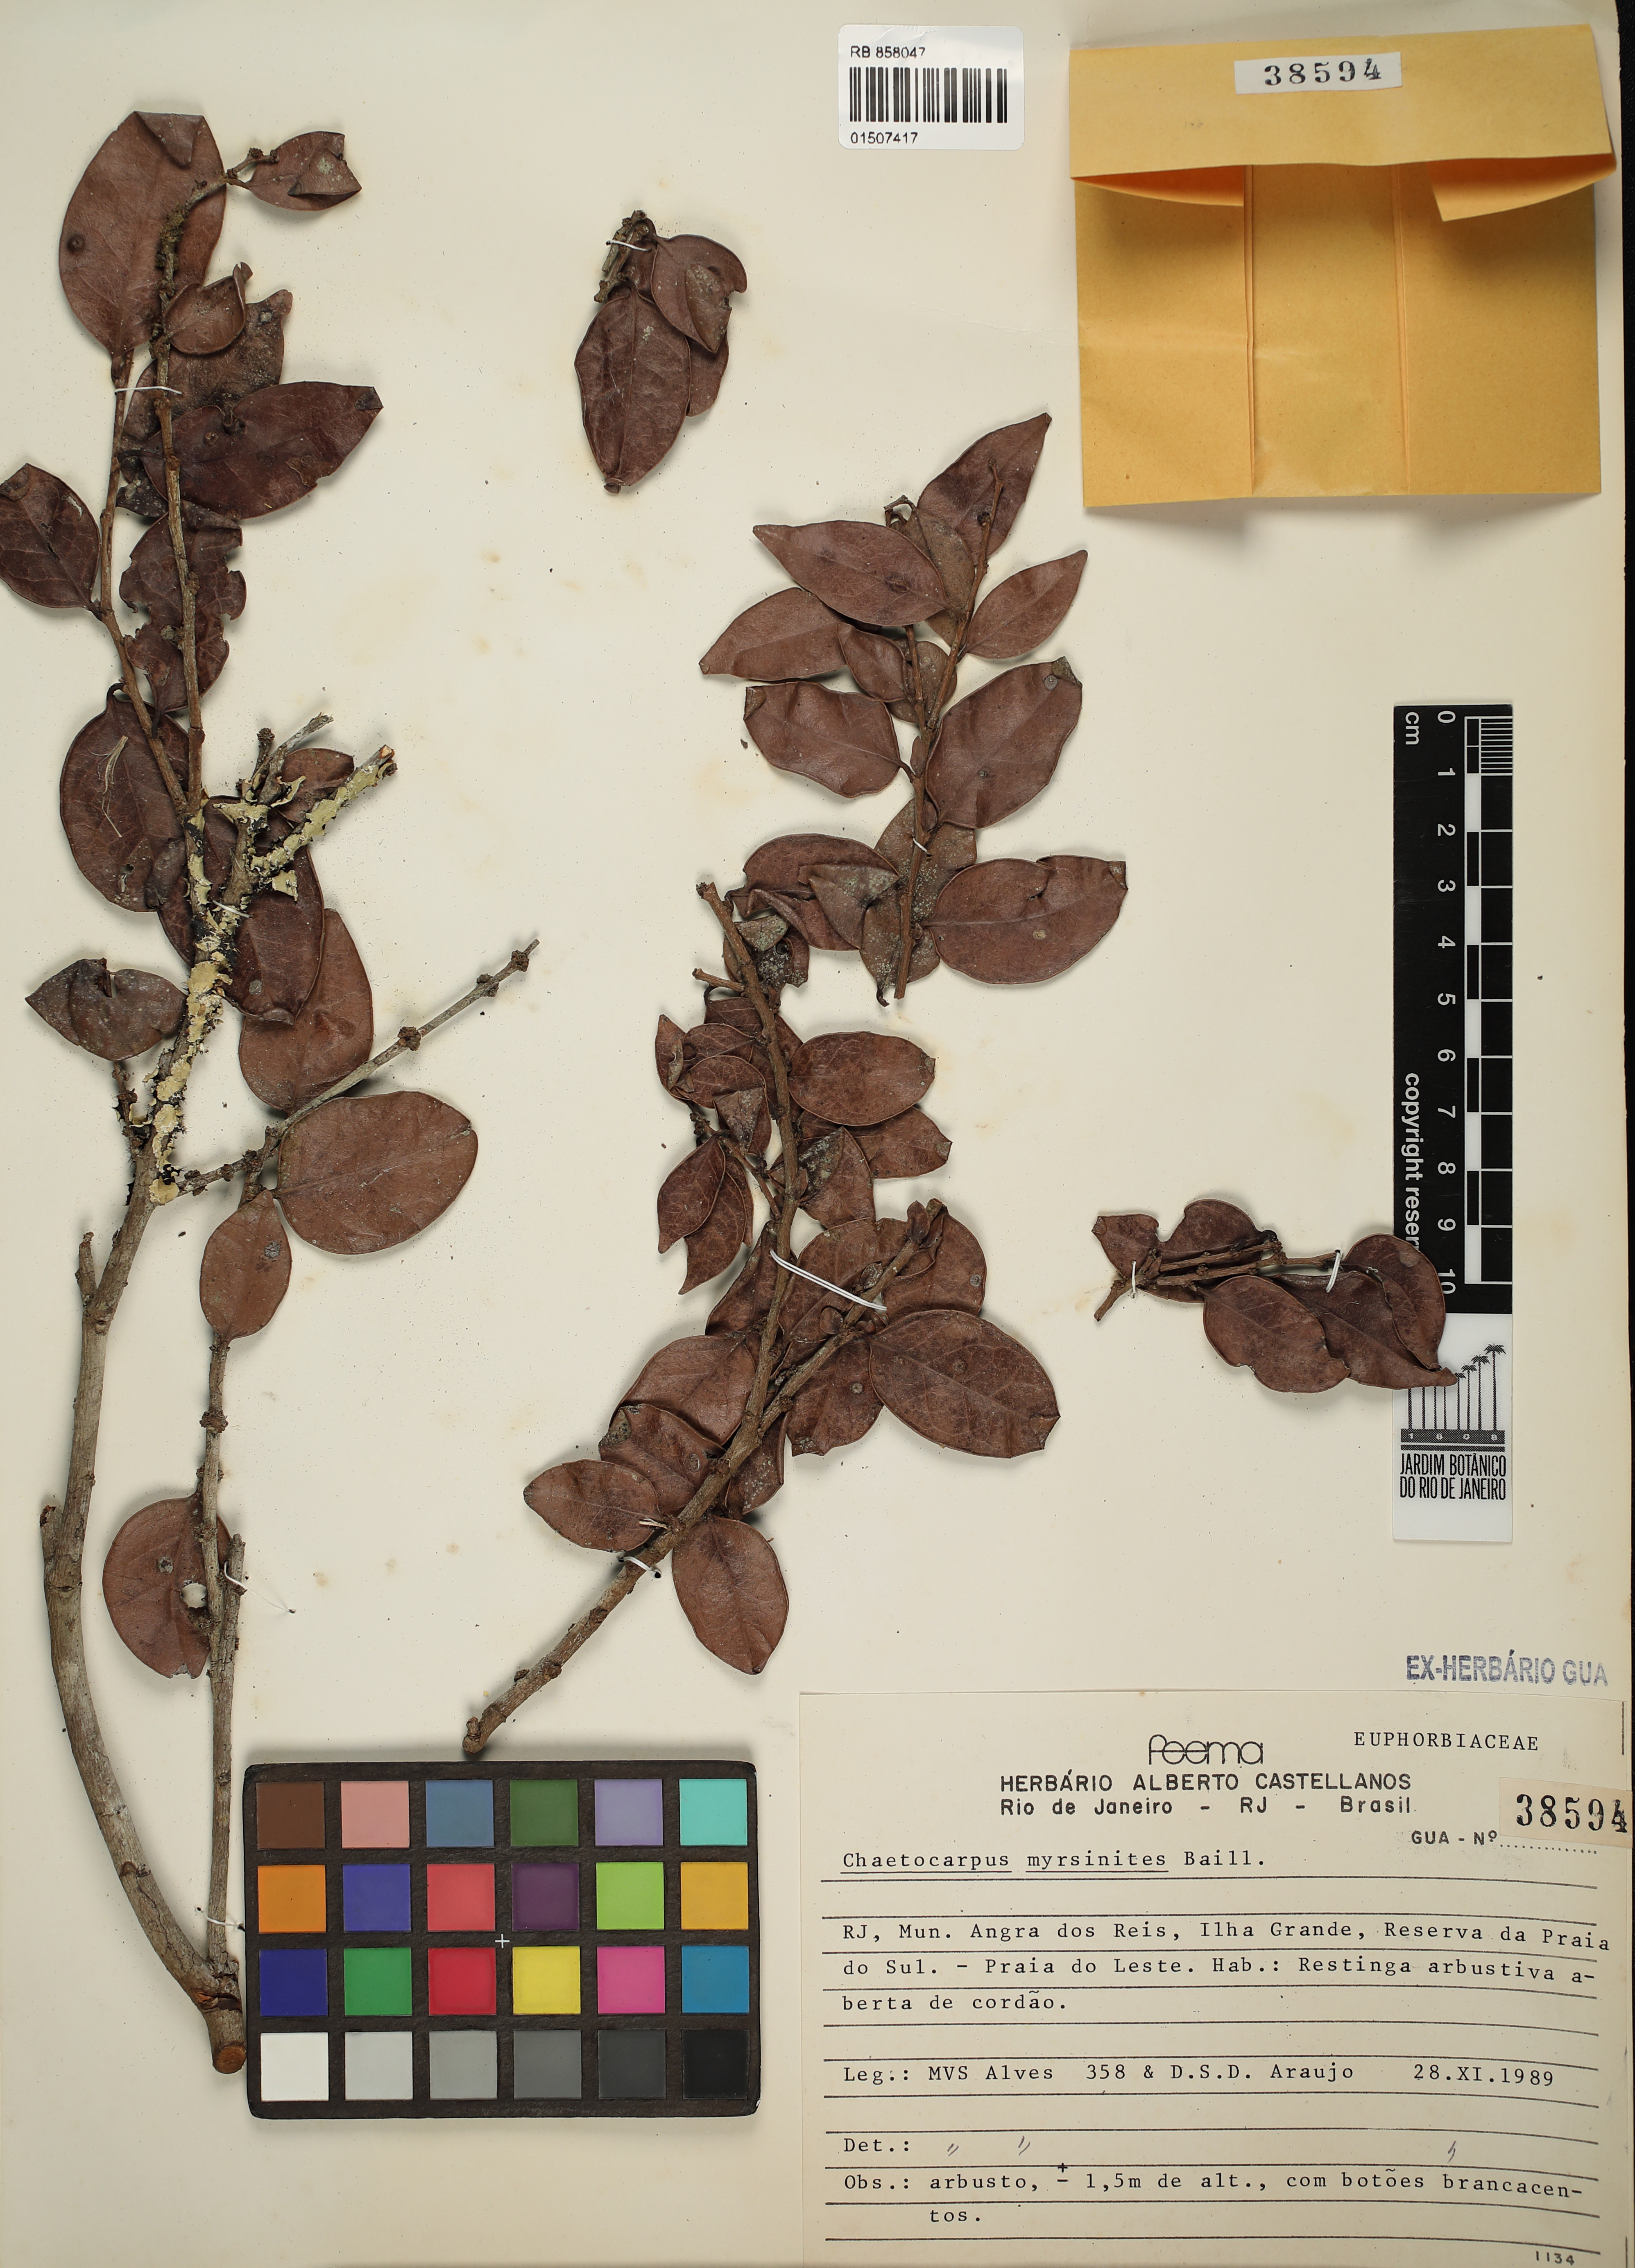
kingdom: Plantae
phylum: Tracheophyta
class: Magnoliopsida
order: Malpighiales
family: Peraceae
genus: Chaetocarpus
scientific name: Chaetocarpus myrsinites
